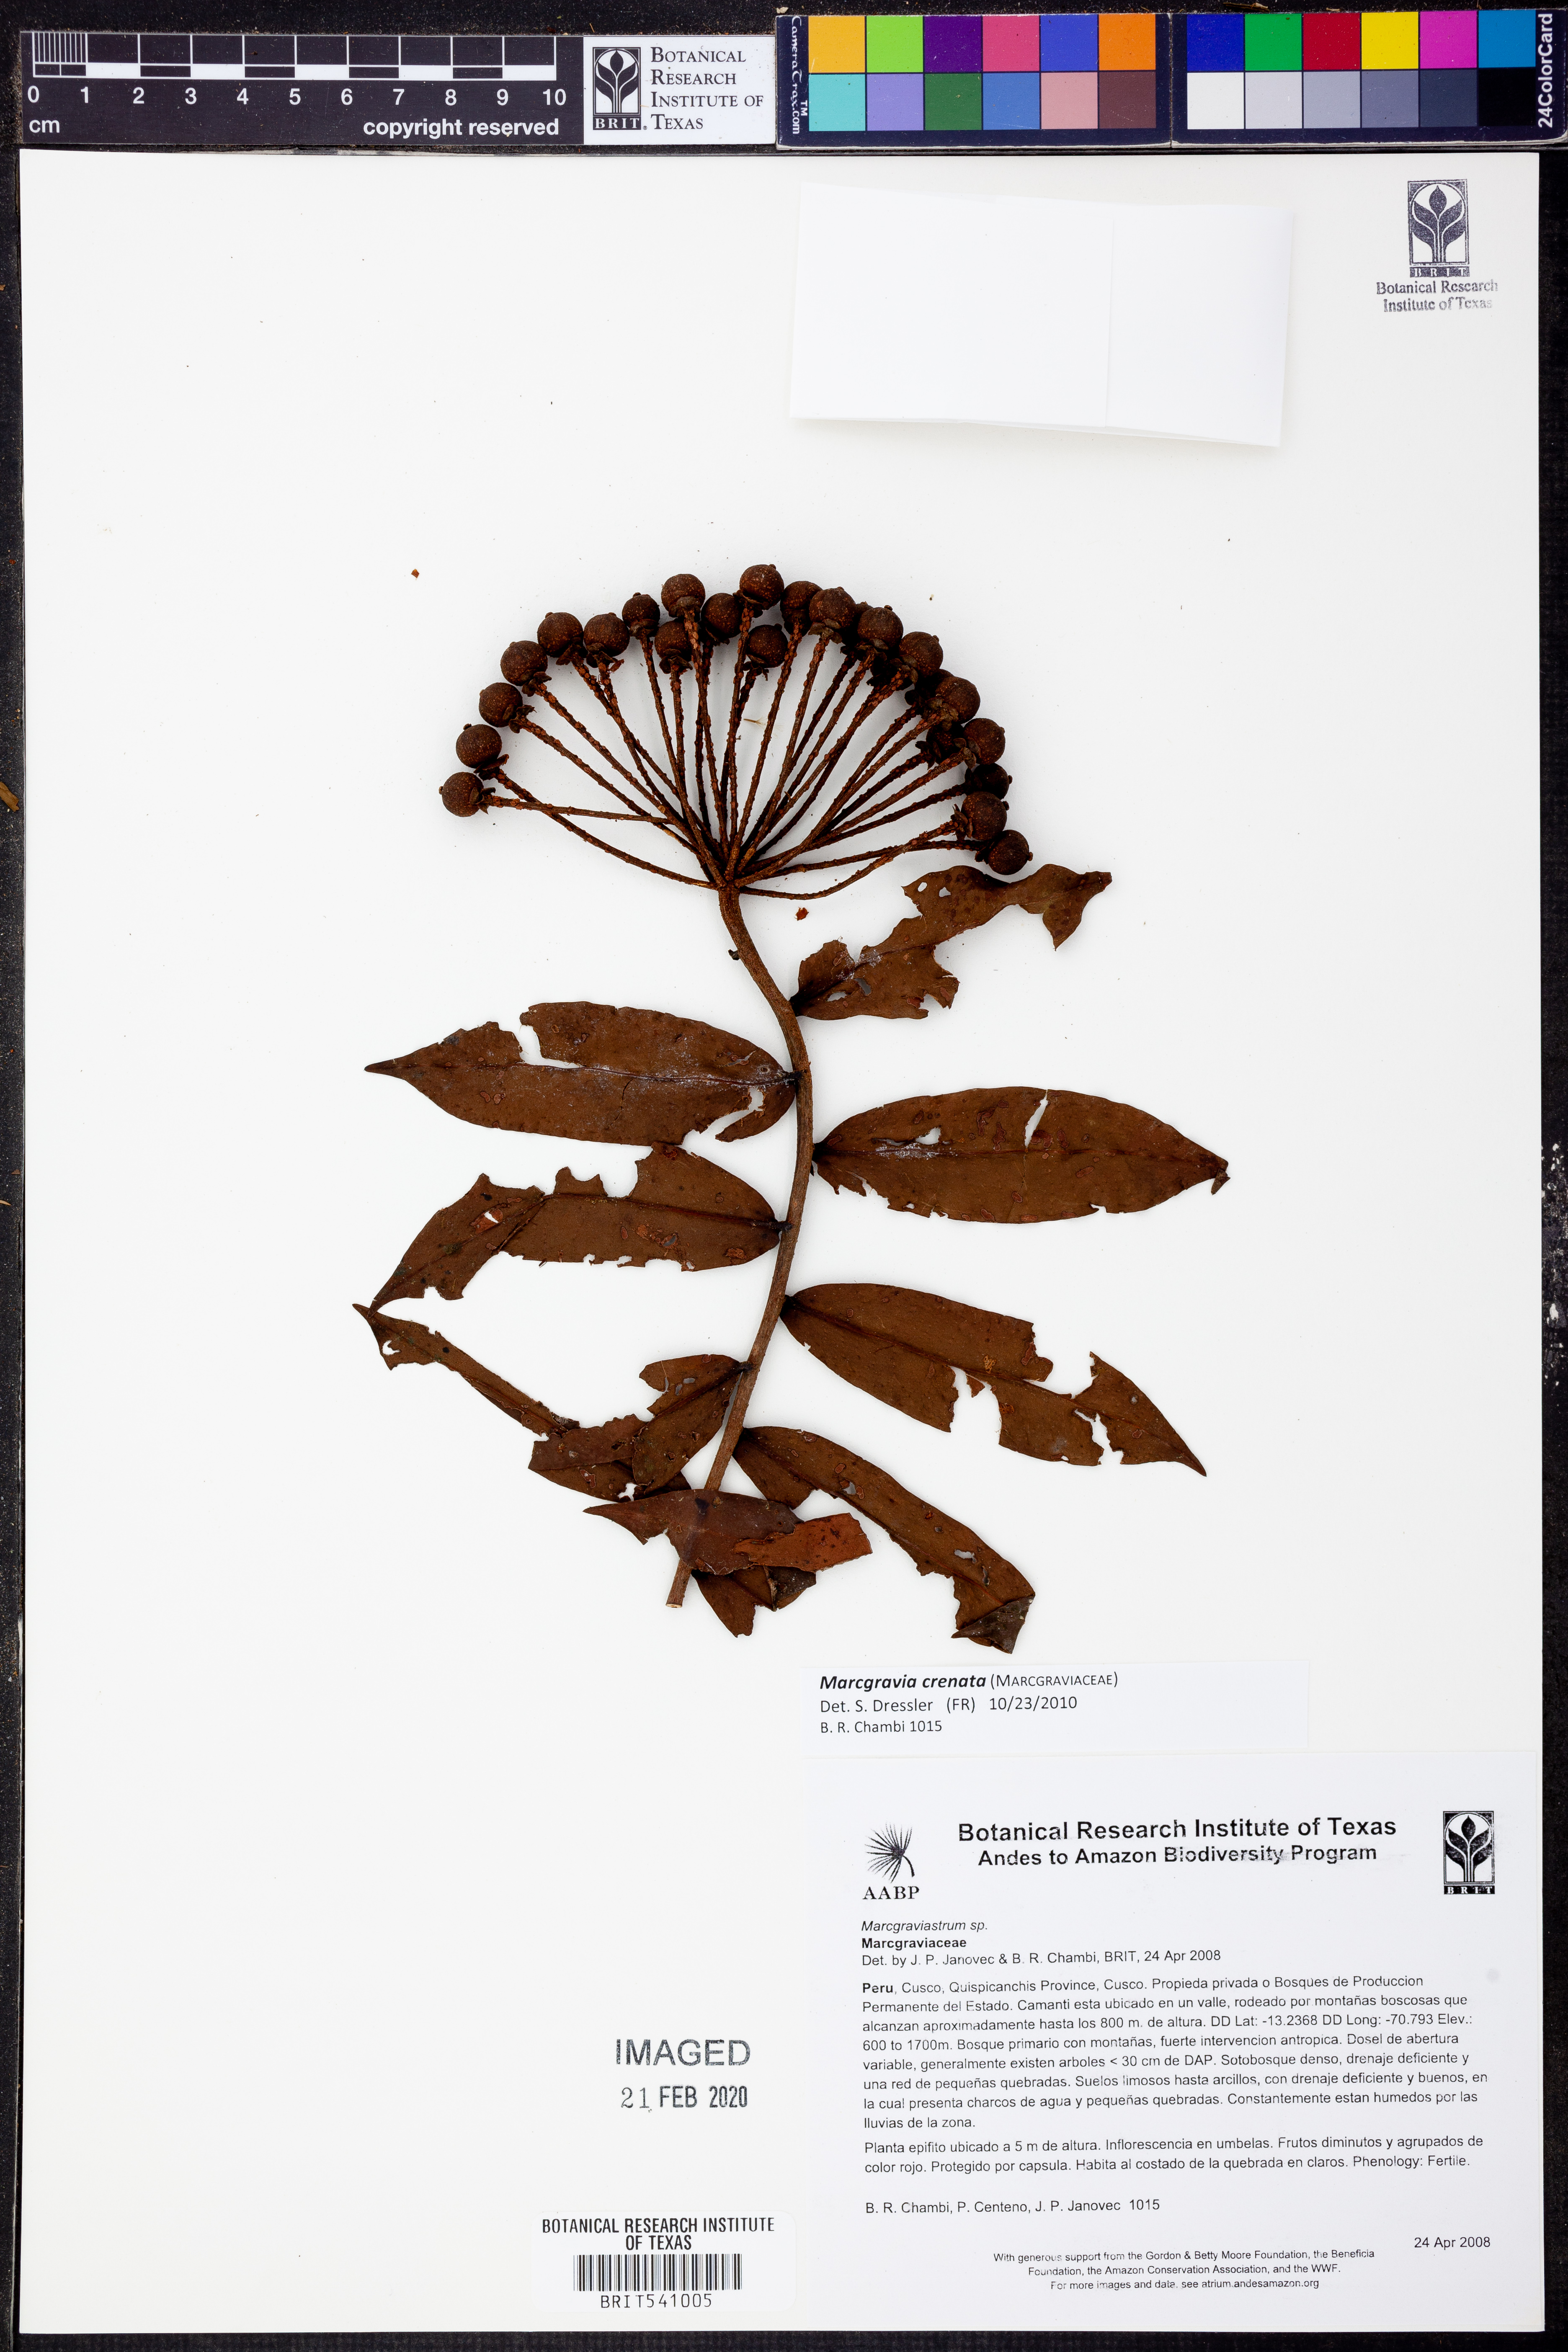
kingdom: Plantae
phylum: Tracheophyta
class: Magnoliopsida
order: Ericales
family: Marcgraviaceae
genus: Marcgravia
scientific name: Marcgravia
